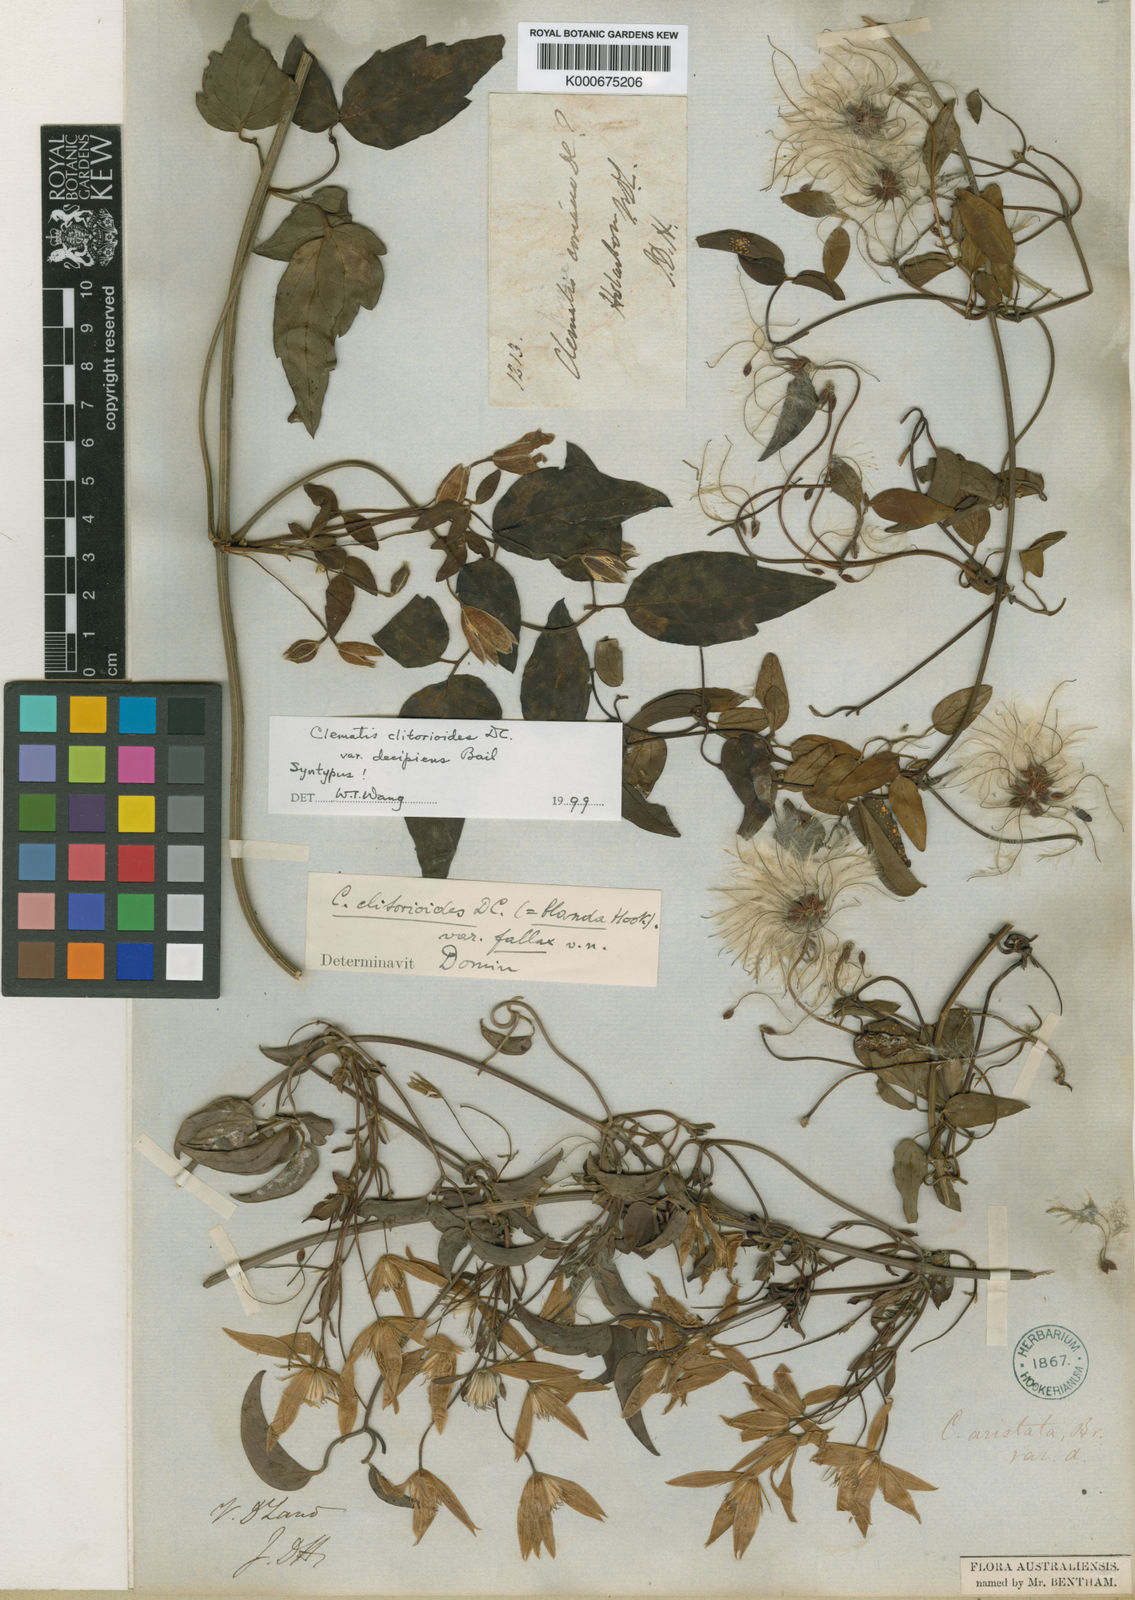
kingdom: Plantae
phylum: Tracheophyta
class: Magnoliopsida
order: Ranunculales
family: Ranunculaceae
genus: Clematis
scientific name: Clematis clitorioides
